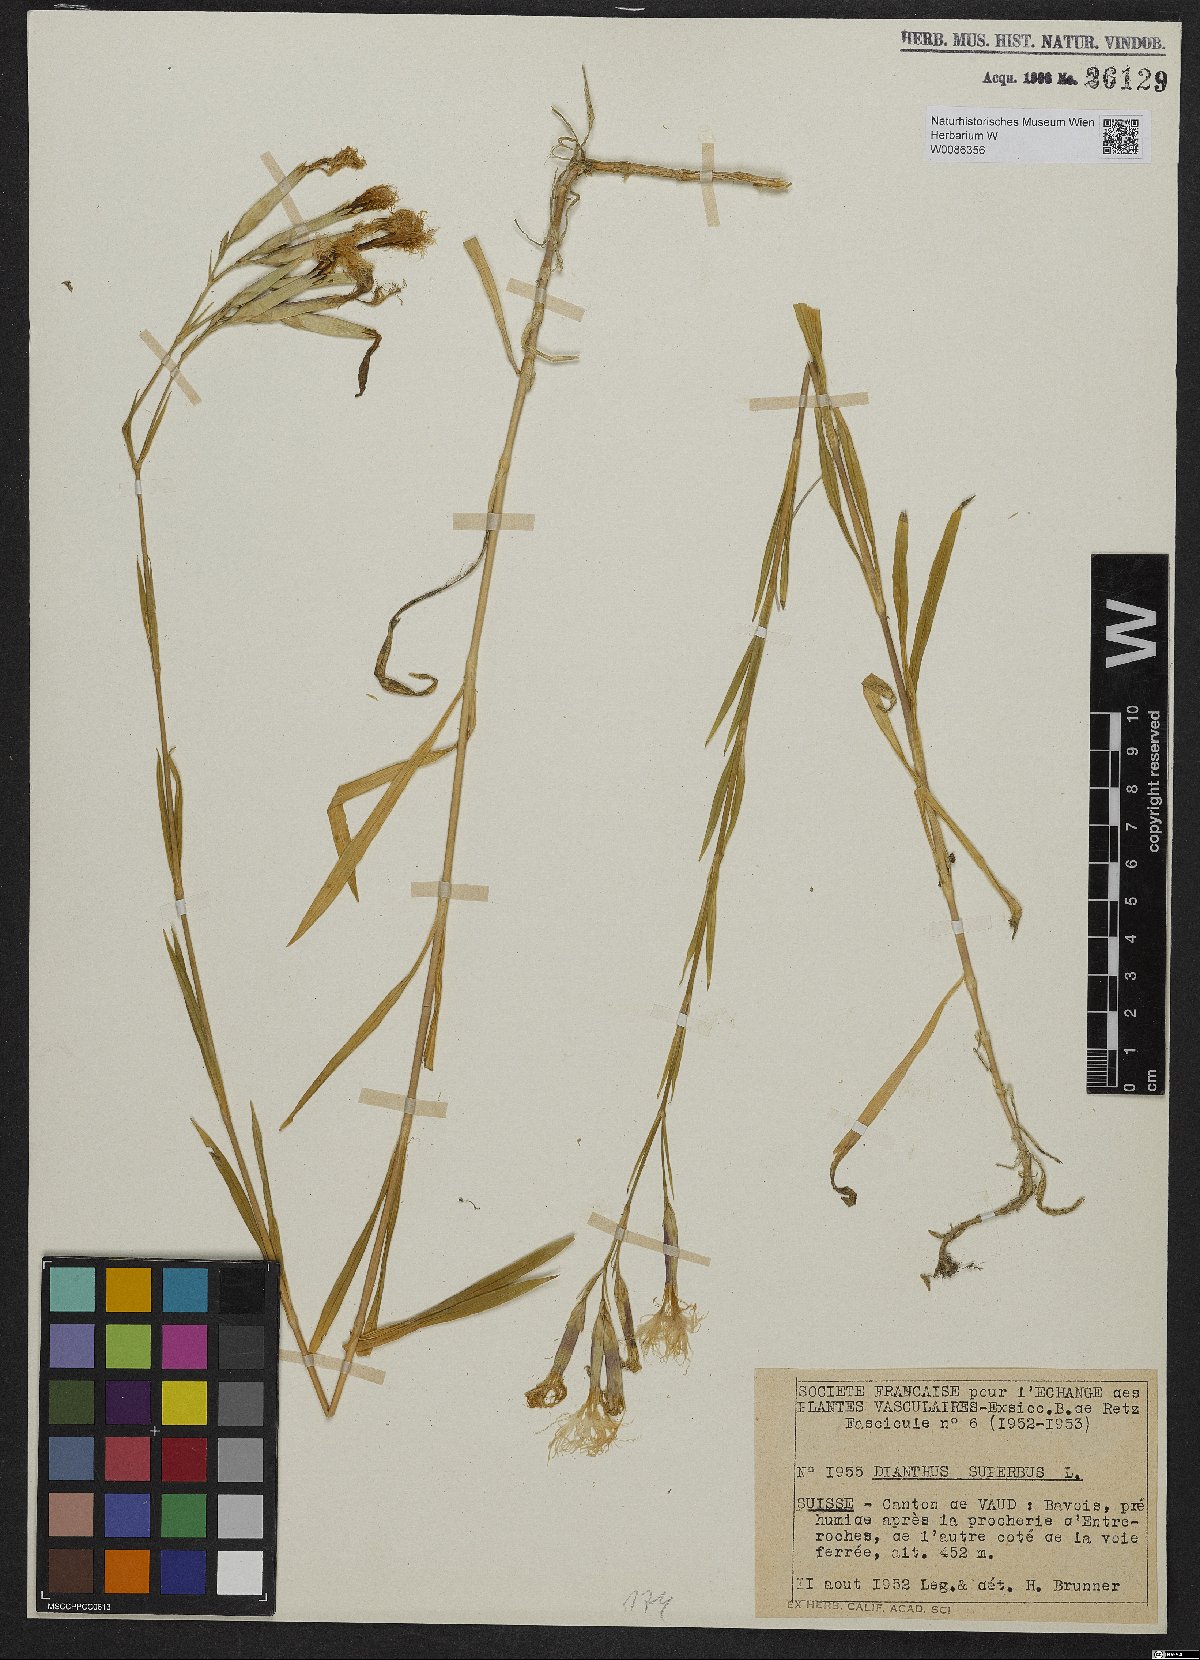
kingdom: Plantae
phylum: Tracheophyta
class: Magnoliopsida
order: Caryophyllales
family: Caryophyllaceae
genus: Dianthus
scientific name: Dianthus superbus
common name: Fringed pink
